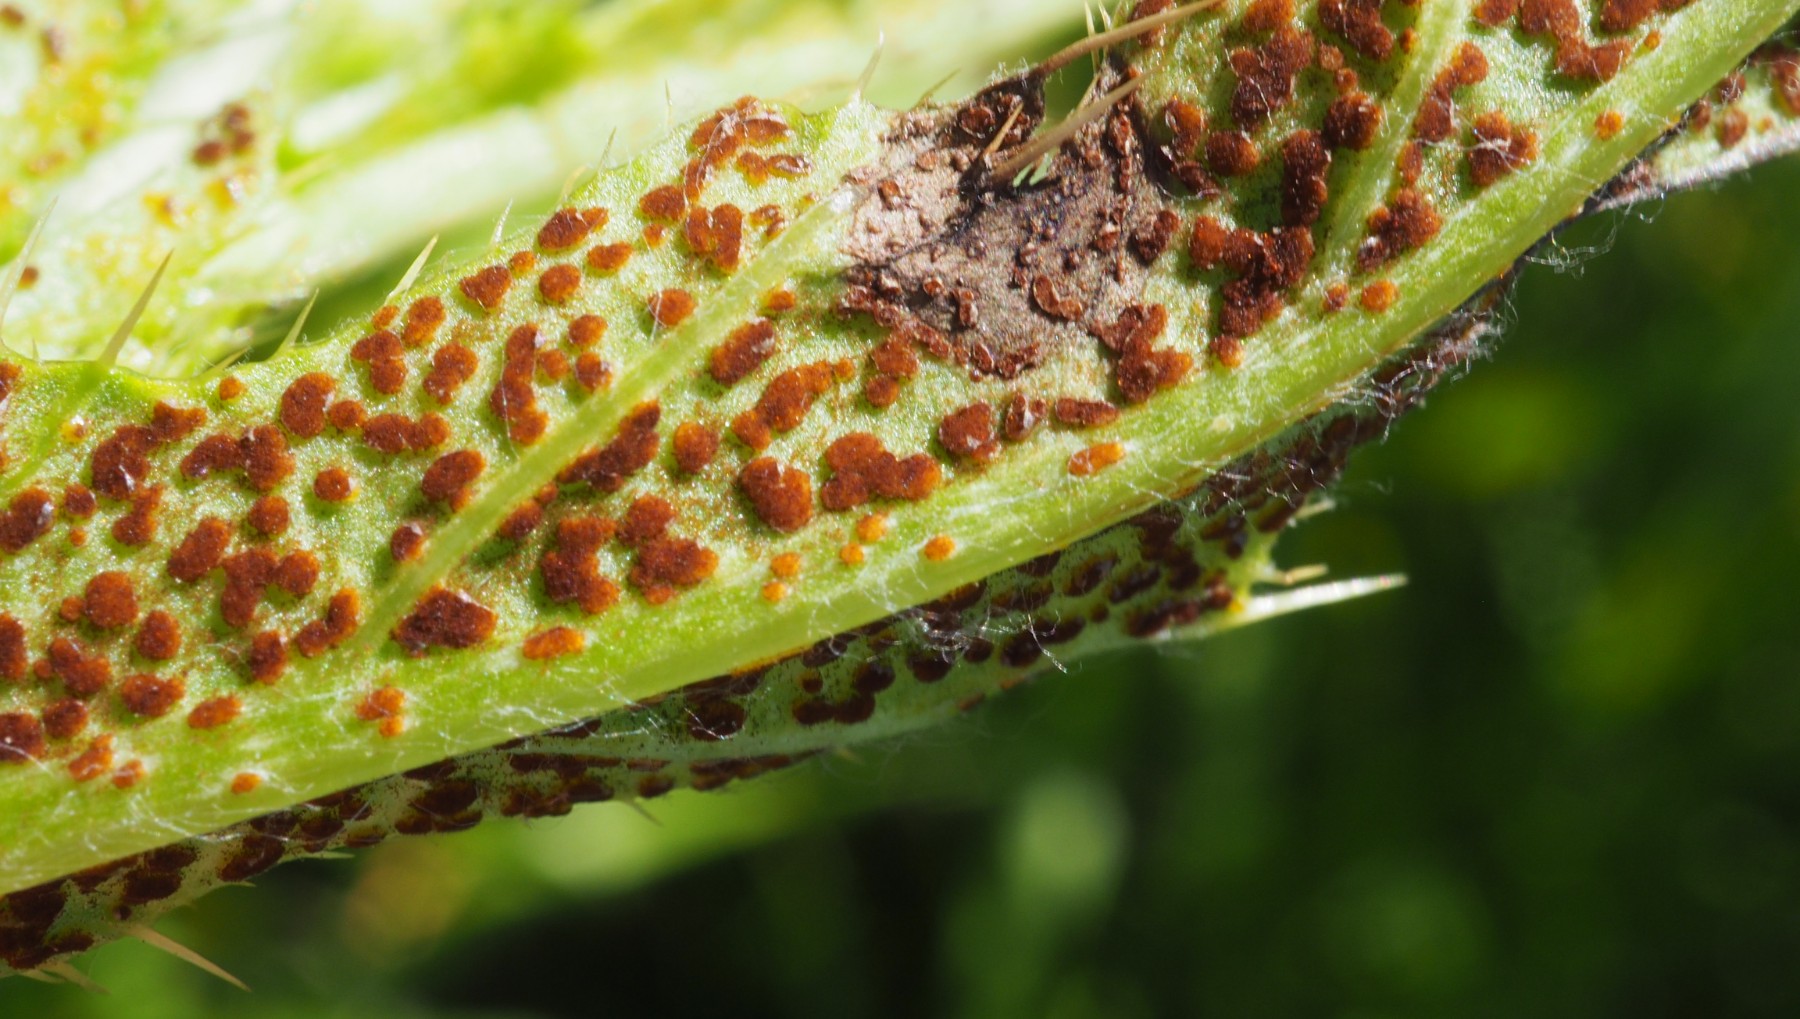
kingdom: Fungi
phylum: Basidiomycota
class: Pucciniomycetes
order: Pucciniales
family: Pucciniaceae
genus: Puccinia
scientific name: Puccinia suaveolens
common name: tidsel-tvecellerust
